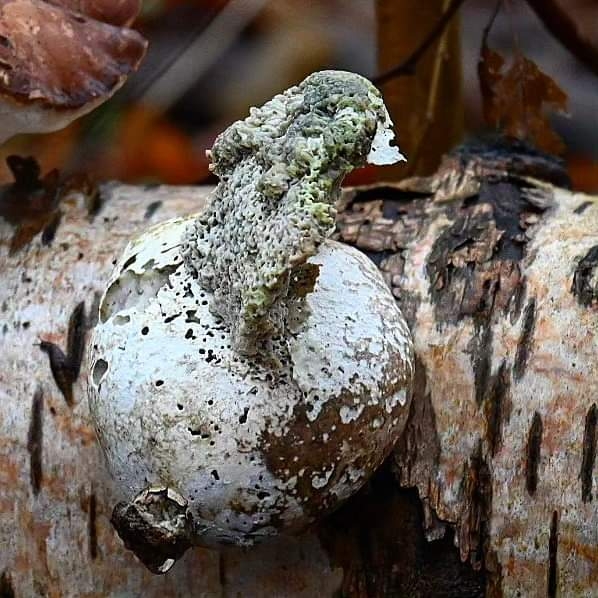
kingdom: Fungi
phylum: Basidiomycota
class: Agaricomycetes
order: Polyporales
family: Fomitopsidaceae
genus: Fomitopsis
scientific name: Fomitopsis betulina
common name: birkeporesvamp
